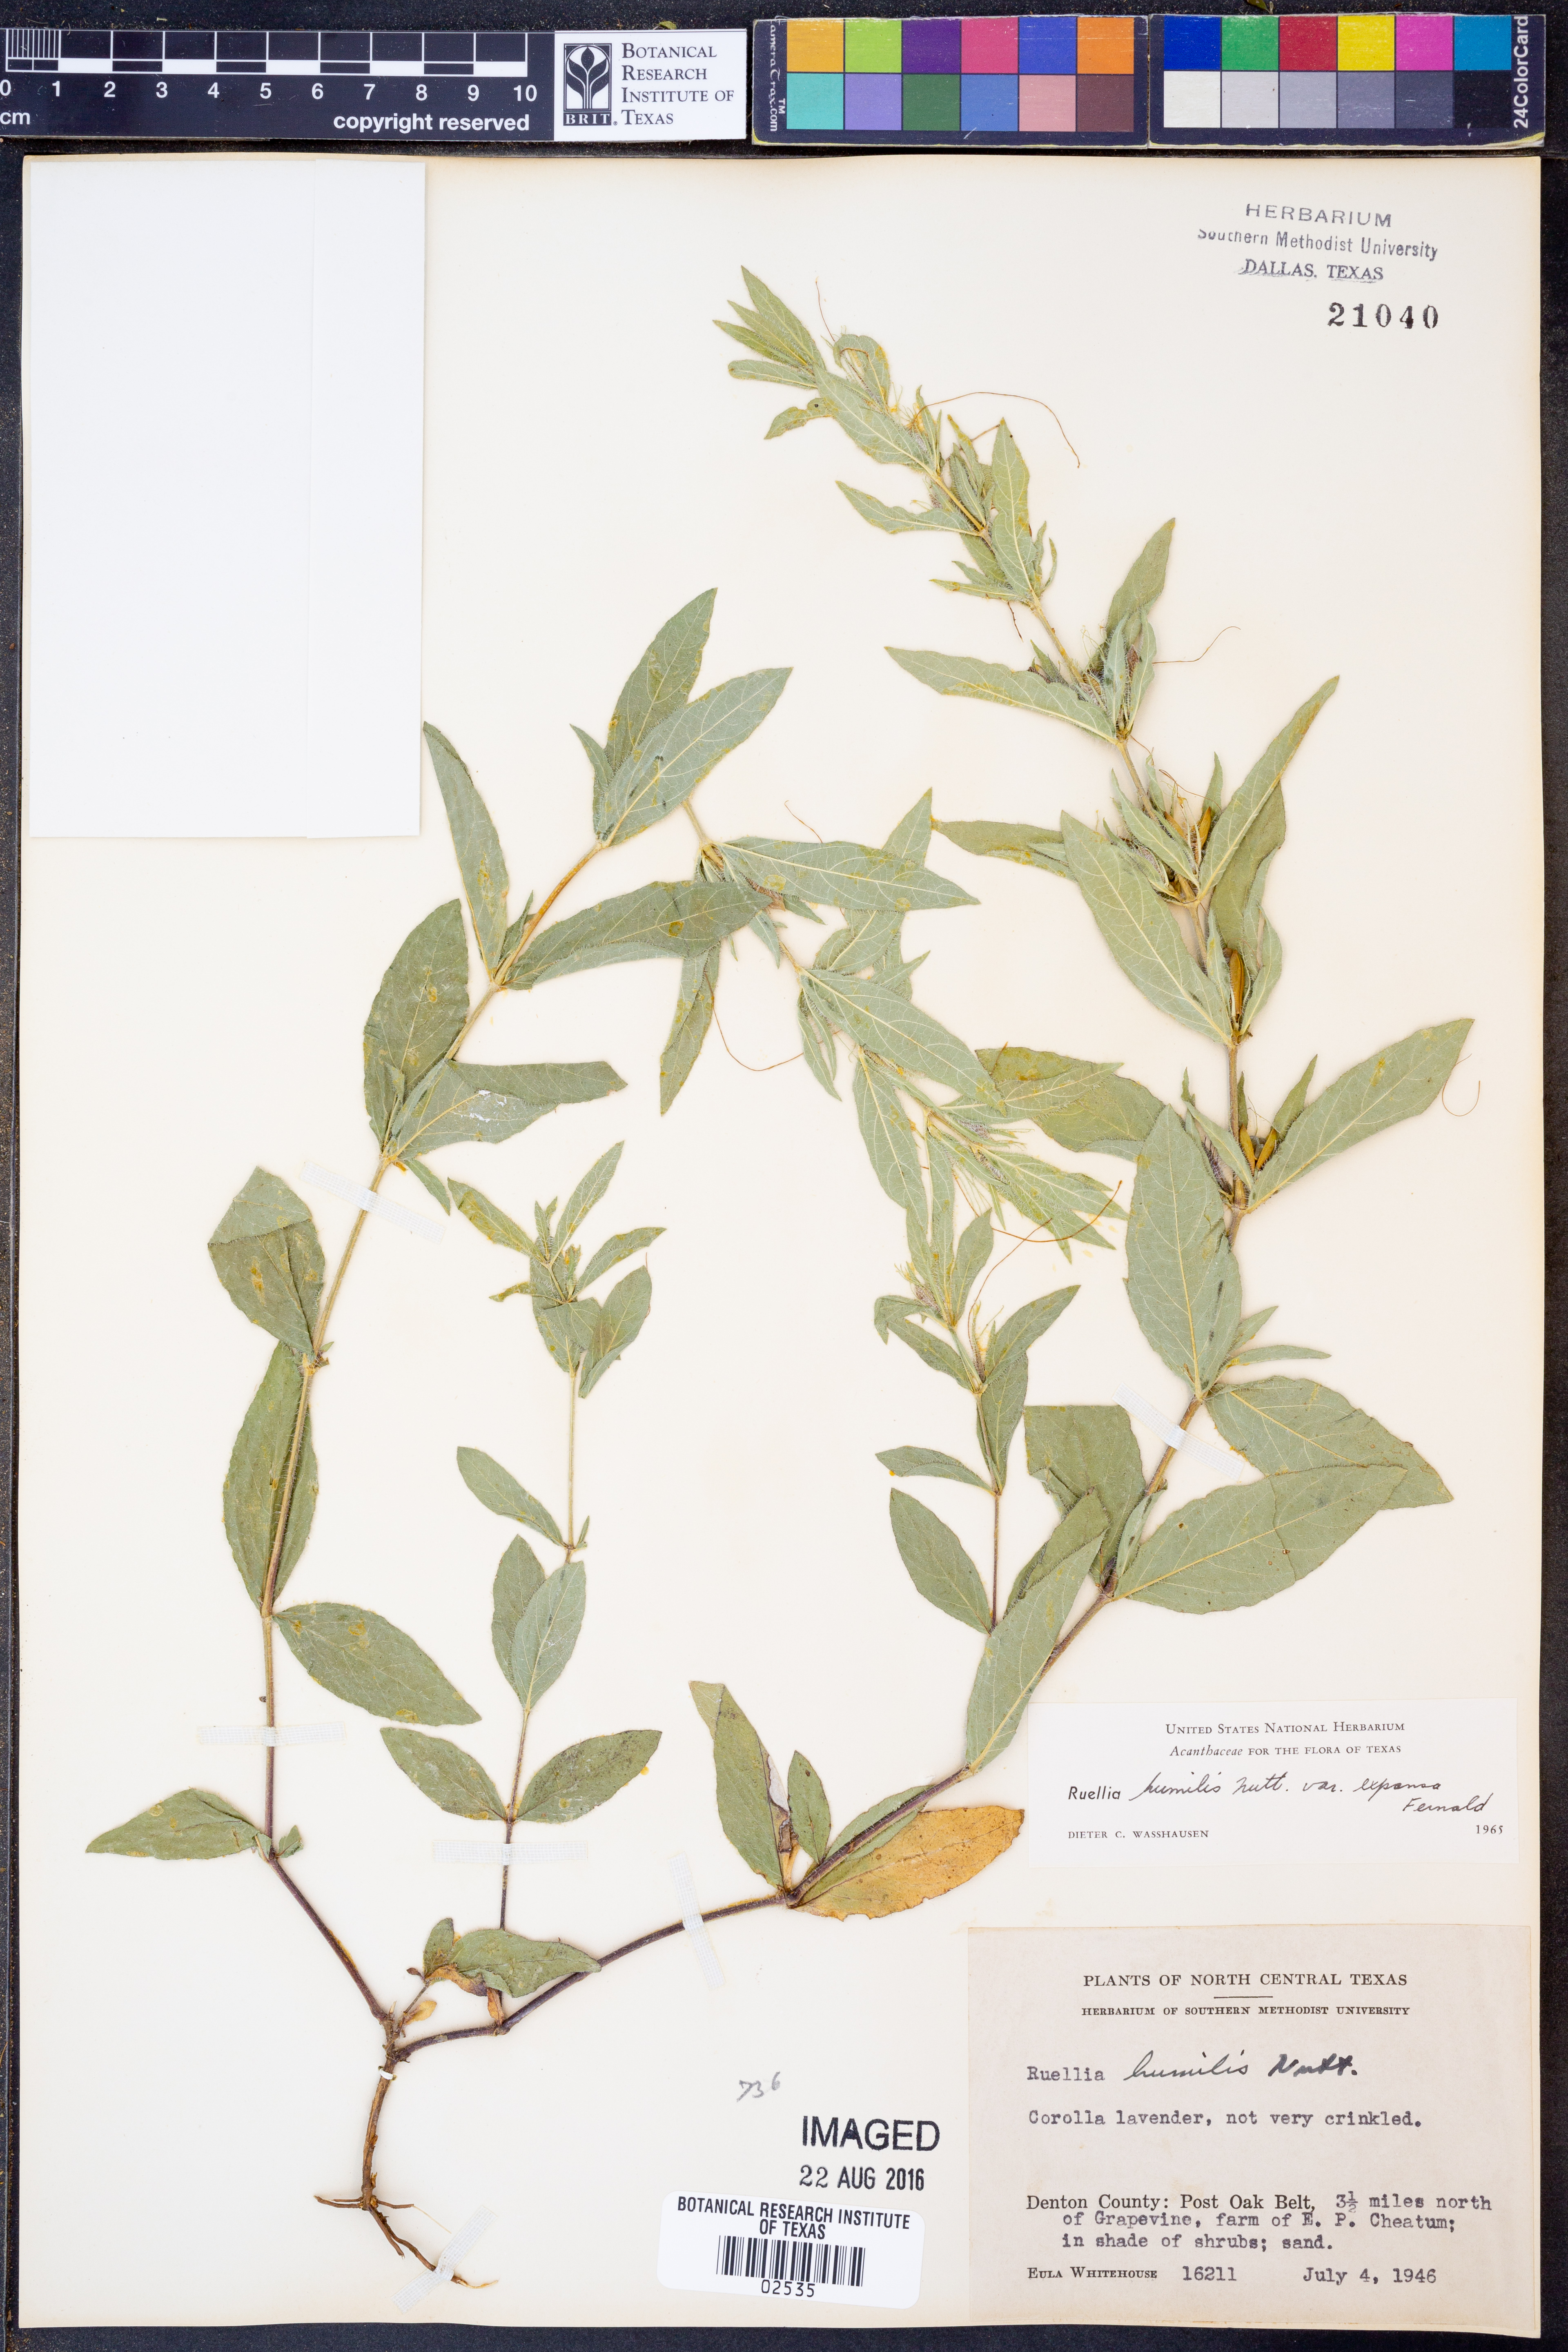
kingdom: Plantae
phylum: Tracheophyta
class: Magnoliopsida
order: Lamiales
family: Acanthaceae
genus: Ruellia
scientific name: Ruellia humilis
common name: Fringe-leaf ruellia
